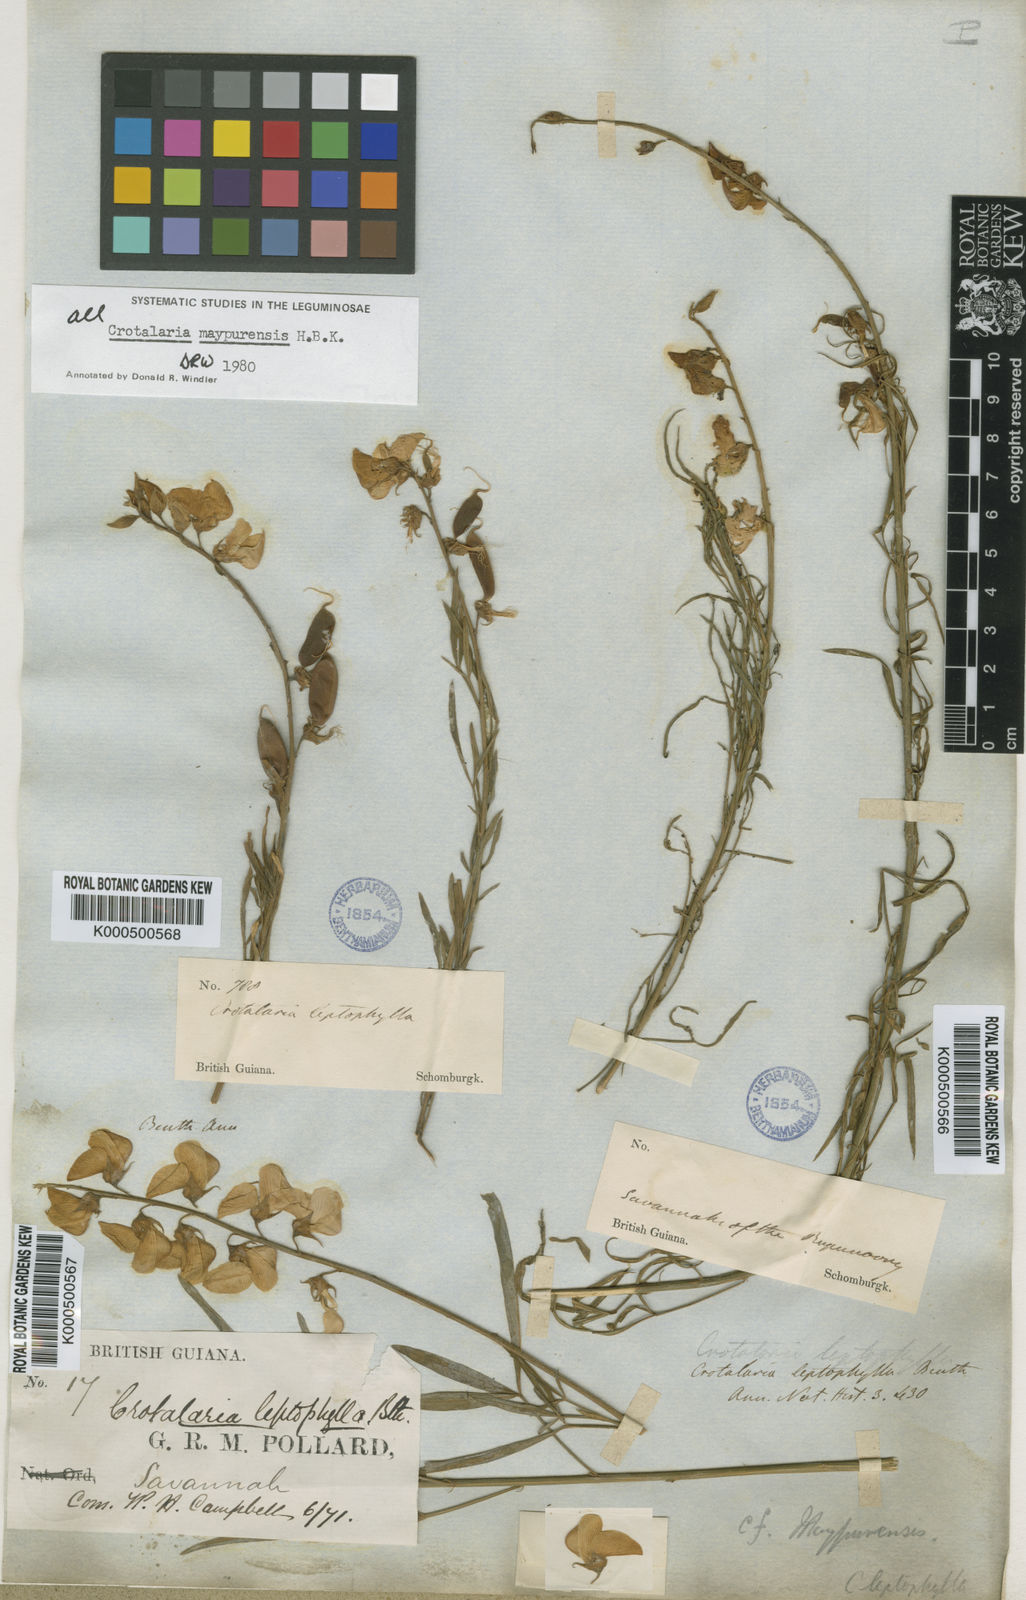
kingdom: Plantae
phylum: Tracheophyta
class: Magnoliopsida
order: Fabales
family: Fabaceae
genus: Crotalaria
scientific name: Crotalaria maypurensis
